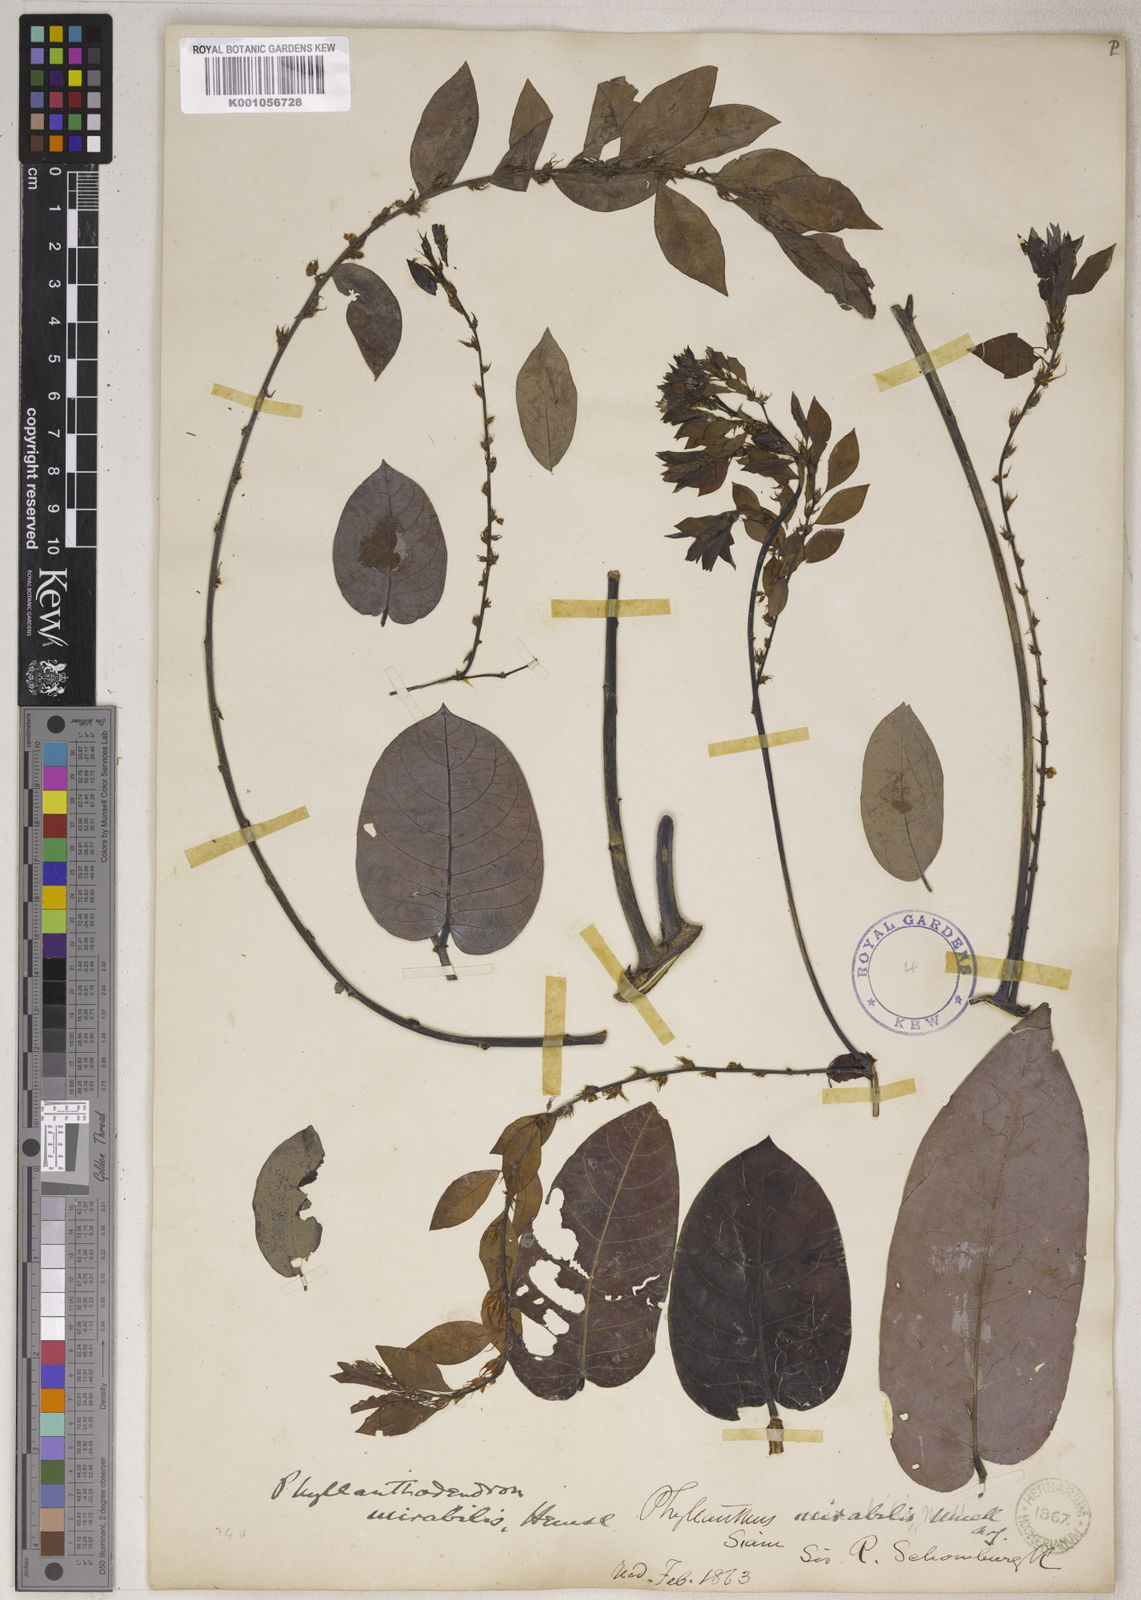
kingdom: Plantae
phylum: Tracheophyta
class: Magnoliopsida
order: Malpighiales
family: Phyllanthaceae
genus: Phyllanthus
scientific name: Phyllanthus
